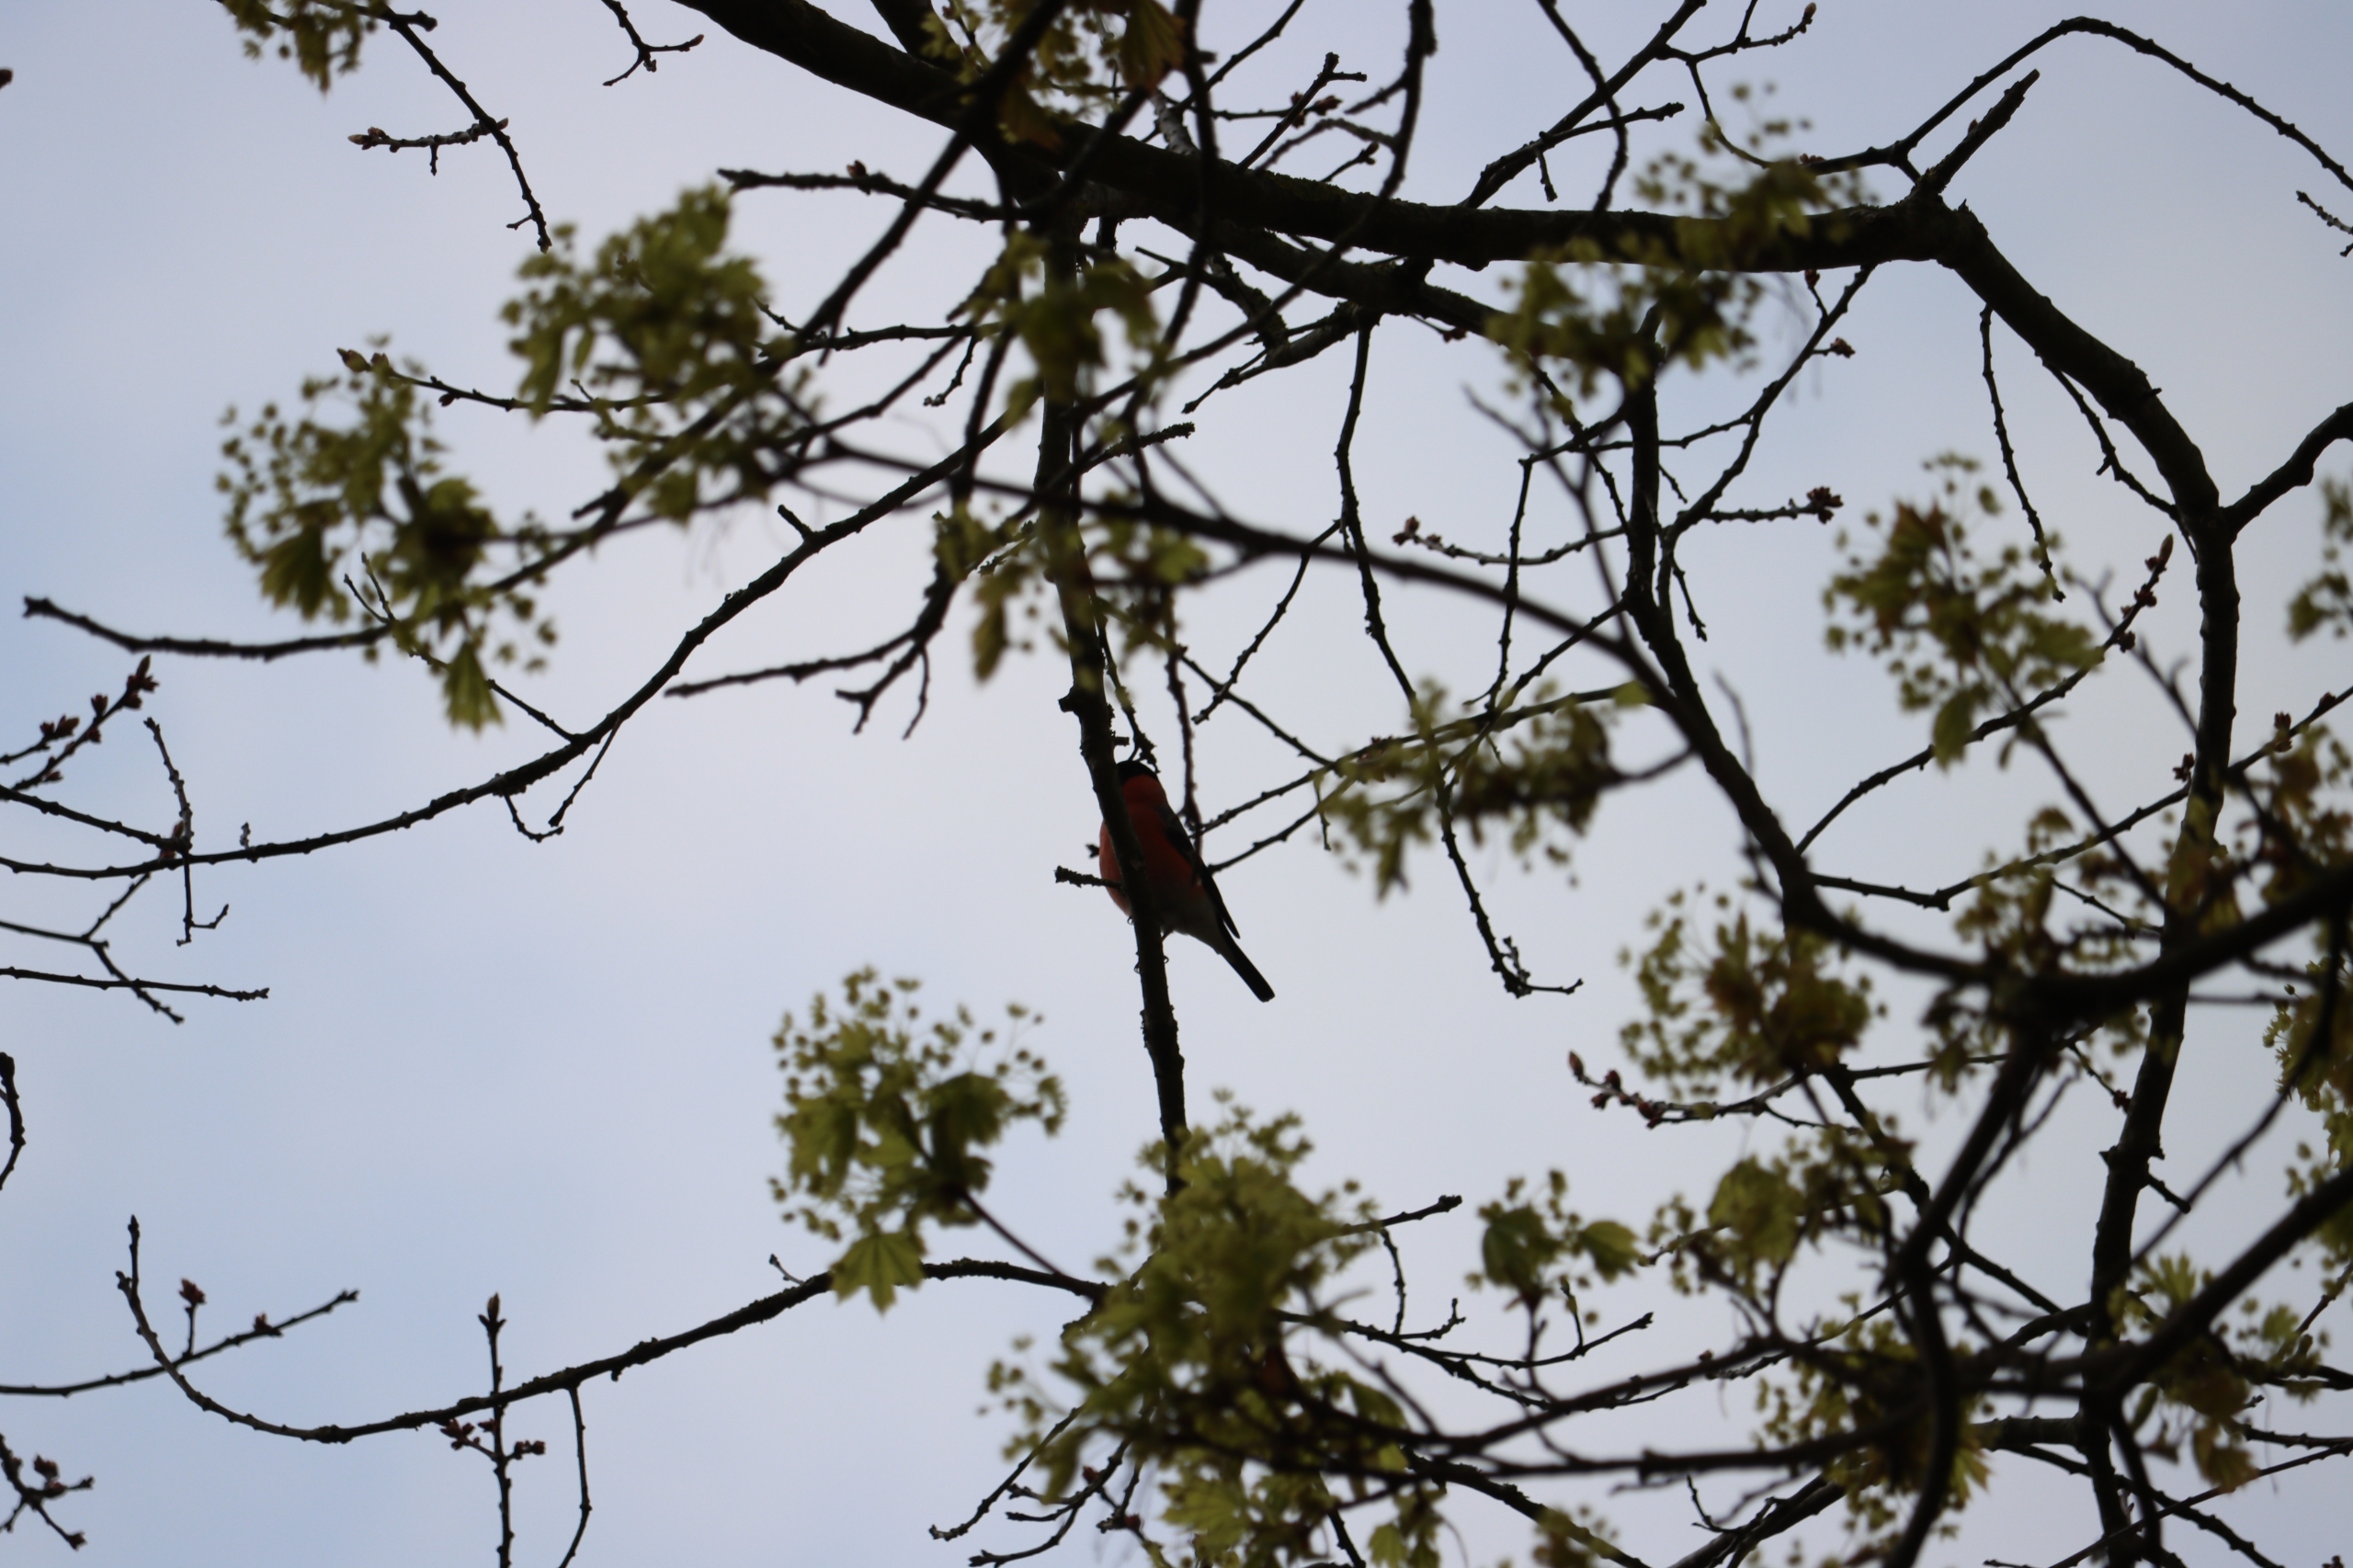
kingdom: Animalia
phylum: Chordata
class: Aves
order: Passeriformes
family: Fringillidae
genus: Pyrrhula
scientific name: Pyrrhula pyrrhula
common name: Dompap
